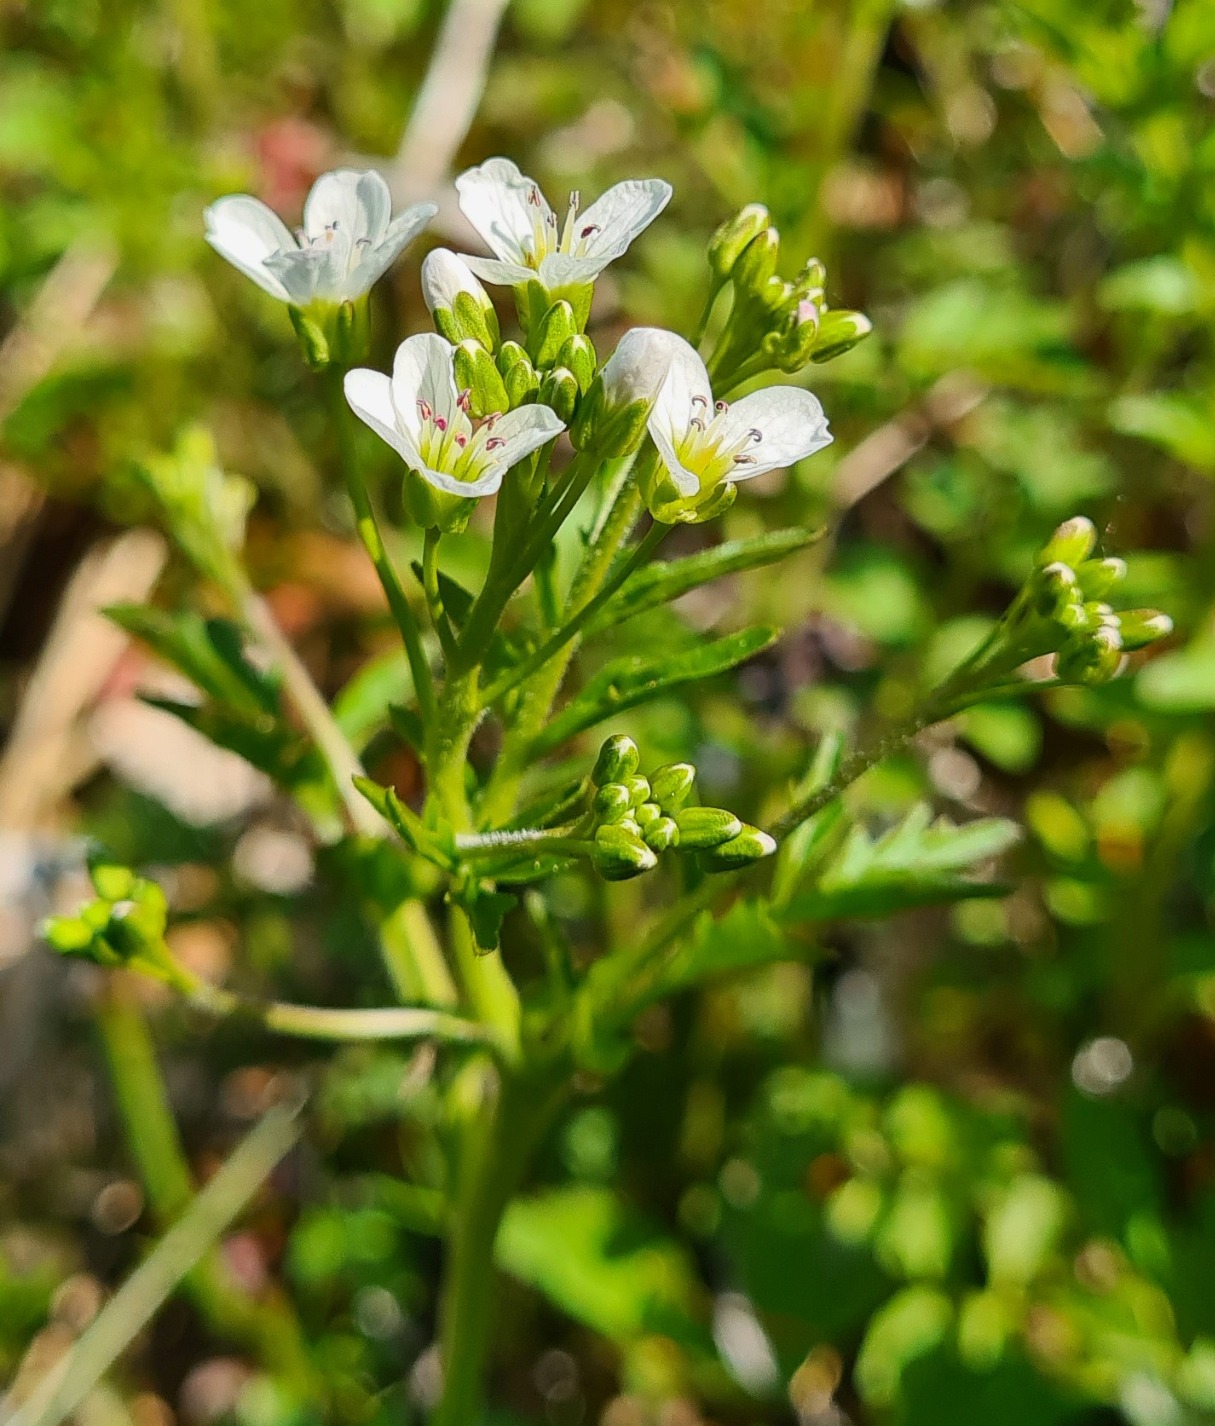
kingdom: Plantae
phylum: Tracheophyta
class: Magnoliopsida
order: Brassicales
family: Brassicaceae
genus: Cardamine
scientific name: Cardamine amara
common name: Vandkarse
